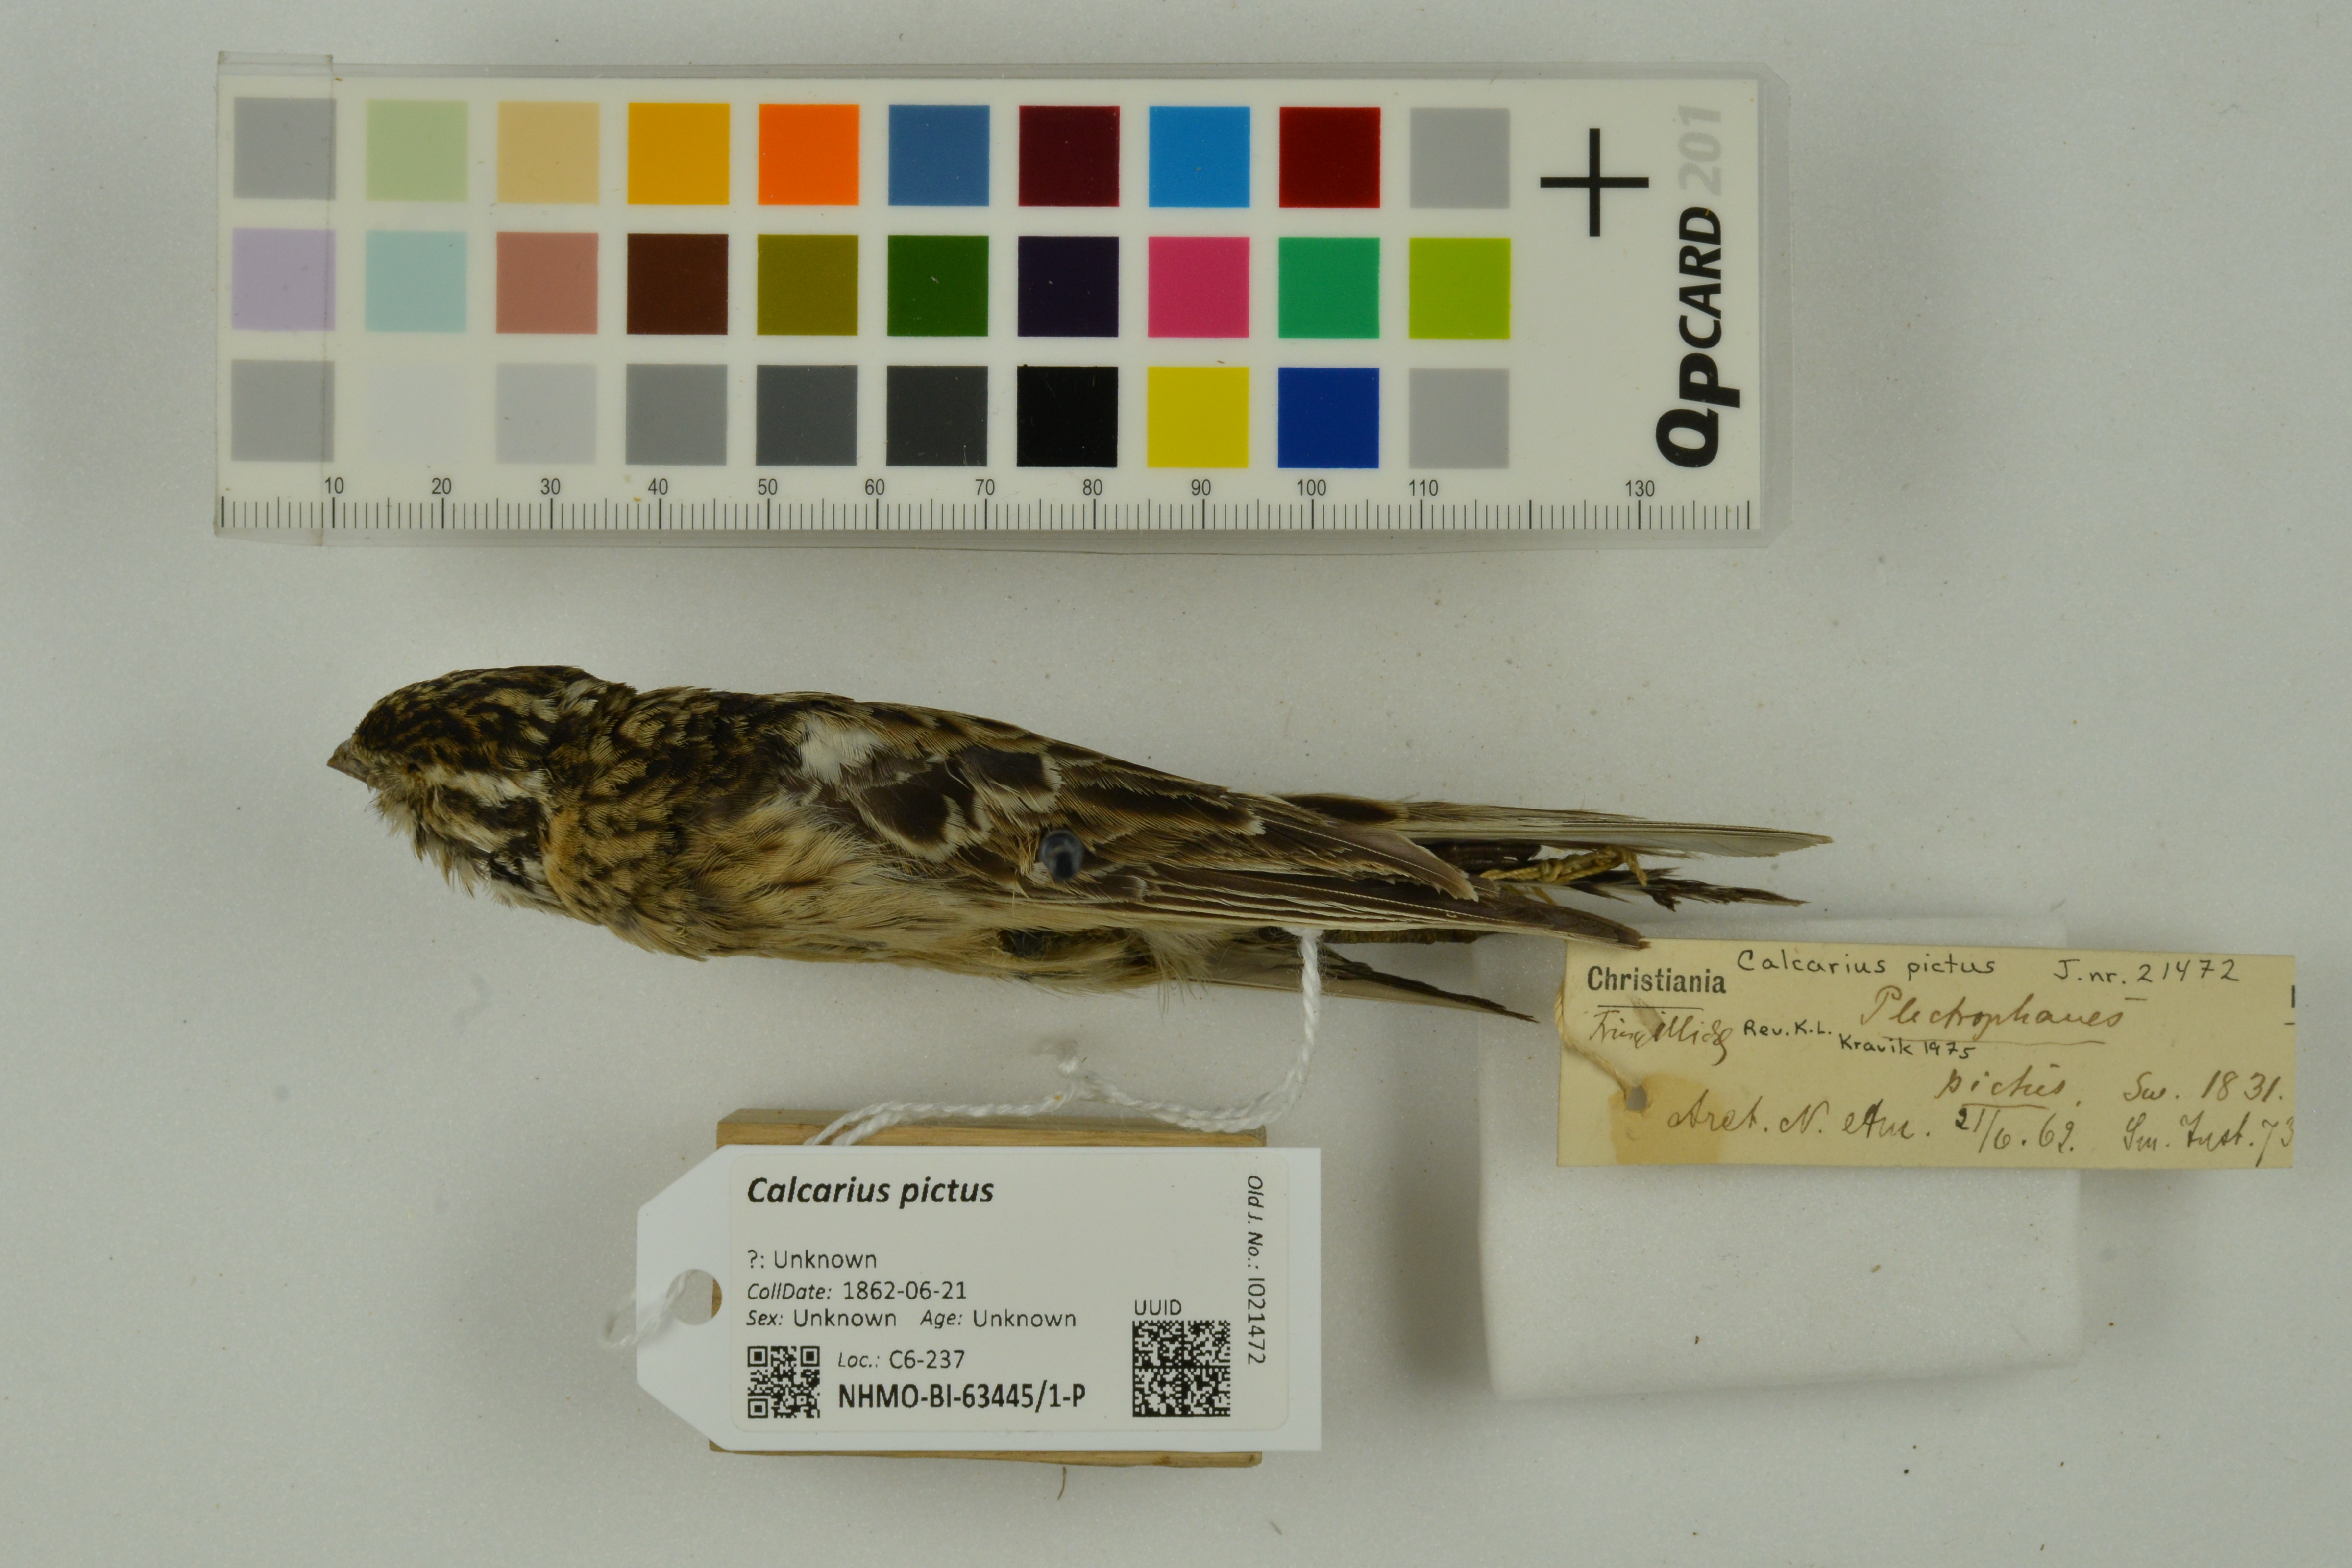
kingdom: Animalia
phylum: Chordata
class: Aves
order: Passeriformes
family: Calcariidae
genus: Calcarius
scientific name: Calcarius pictus
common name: Smith's longspur
